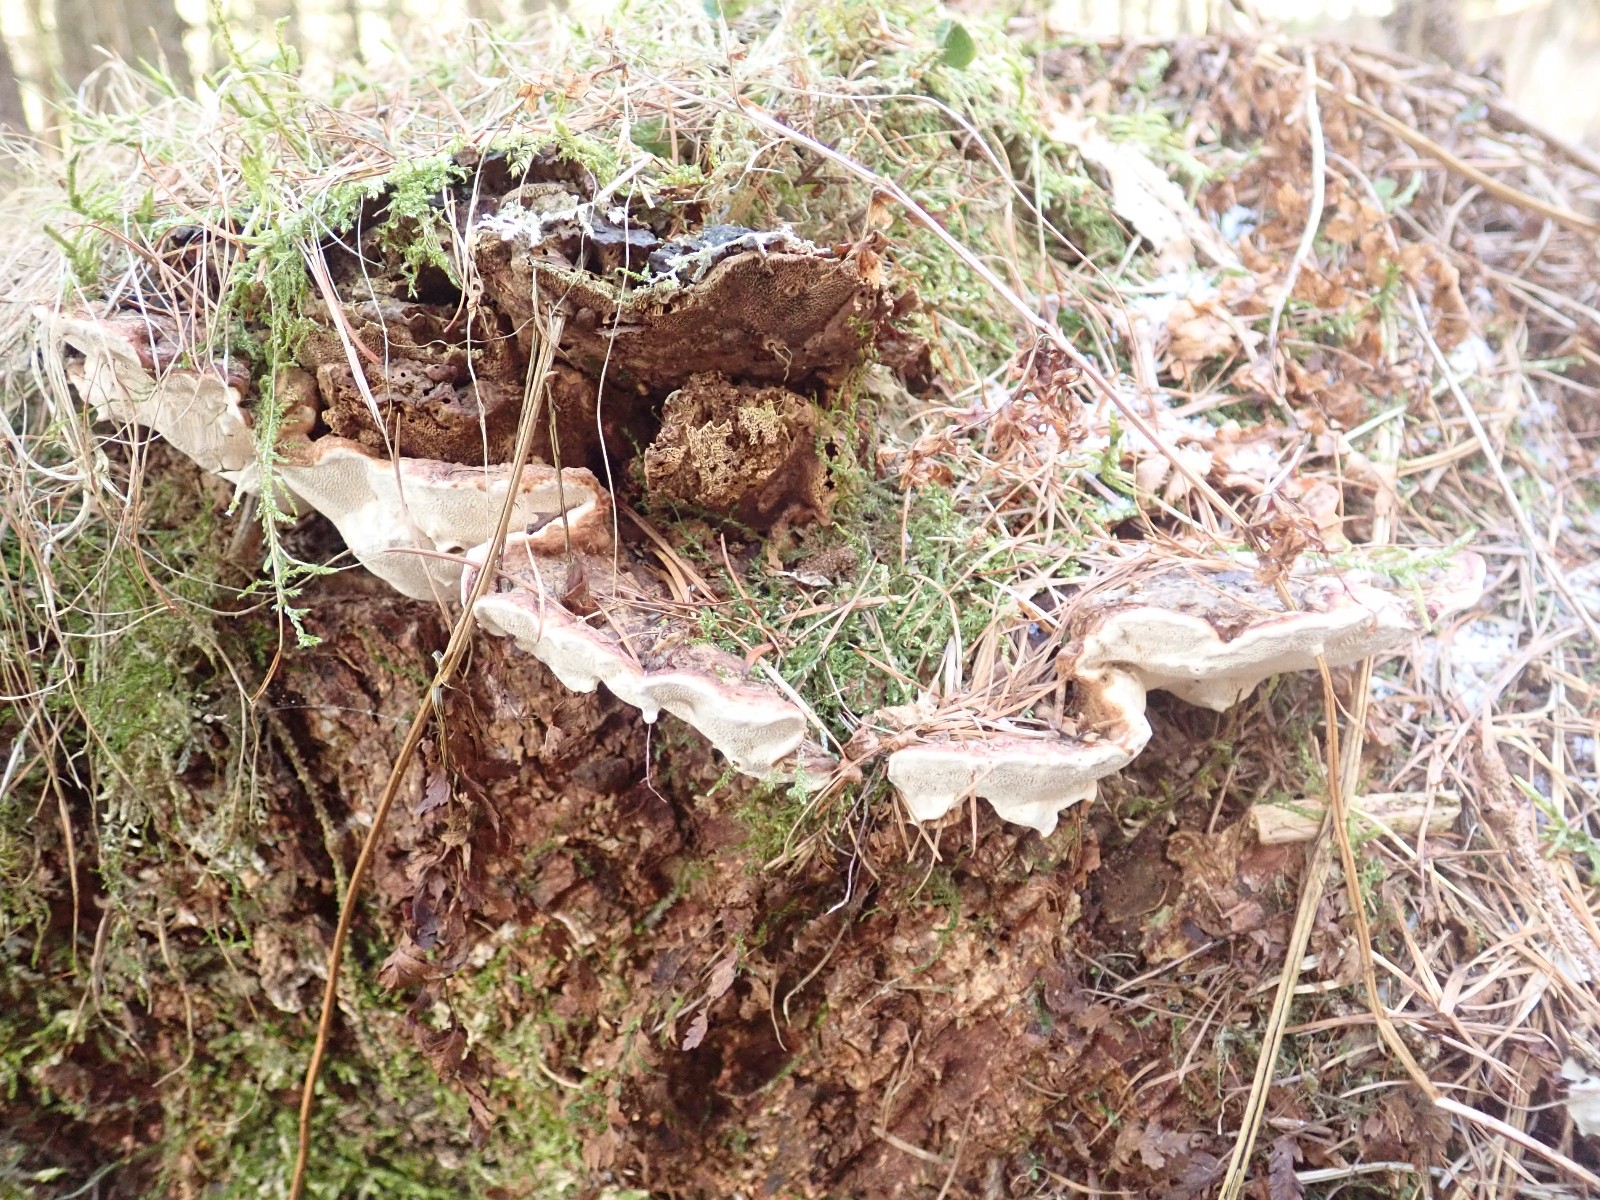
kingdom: Fungi
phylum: Basidiomycota
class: Agaricomycetes
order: Russulales
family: Bondarzewiaceae
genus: Heterobasidion
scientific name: Heterobasidion annosum
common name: almindelig rodfordærver
